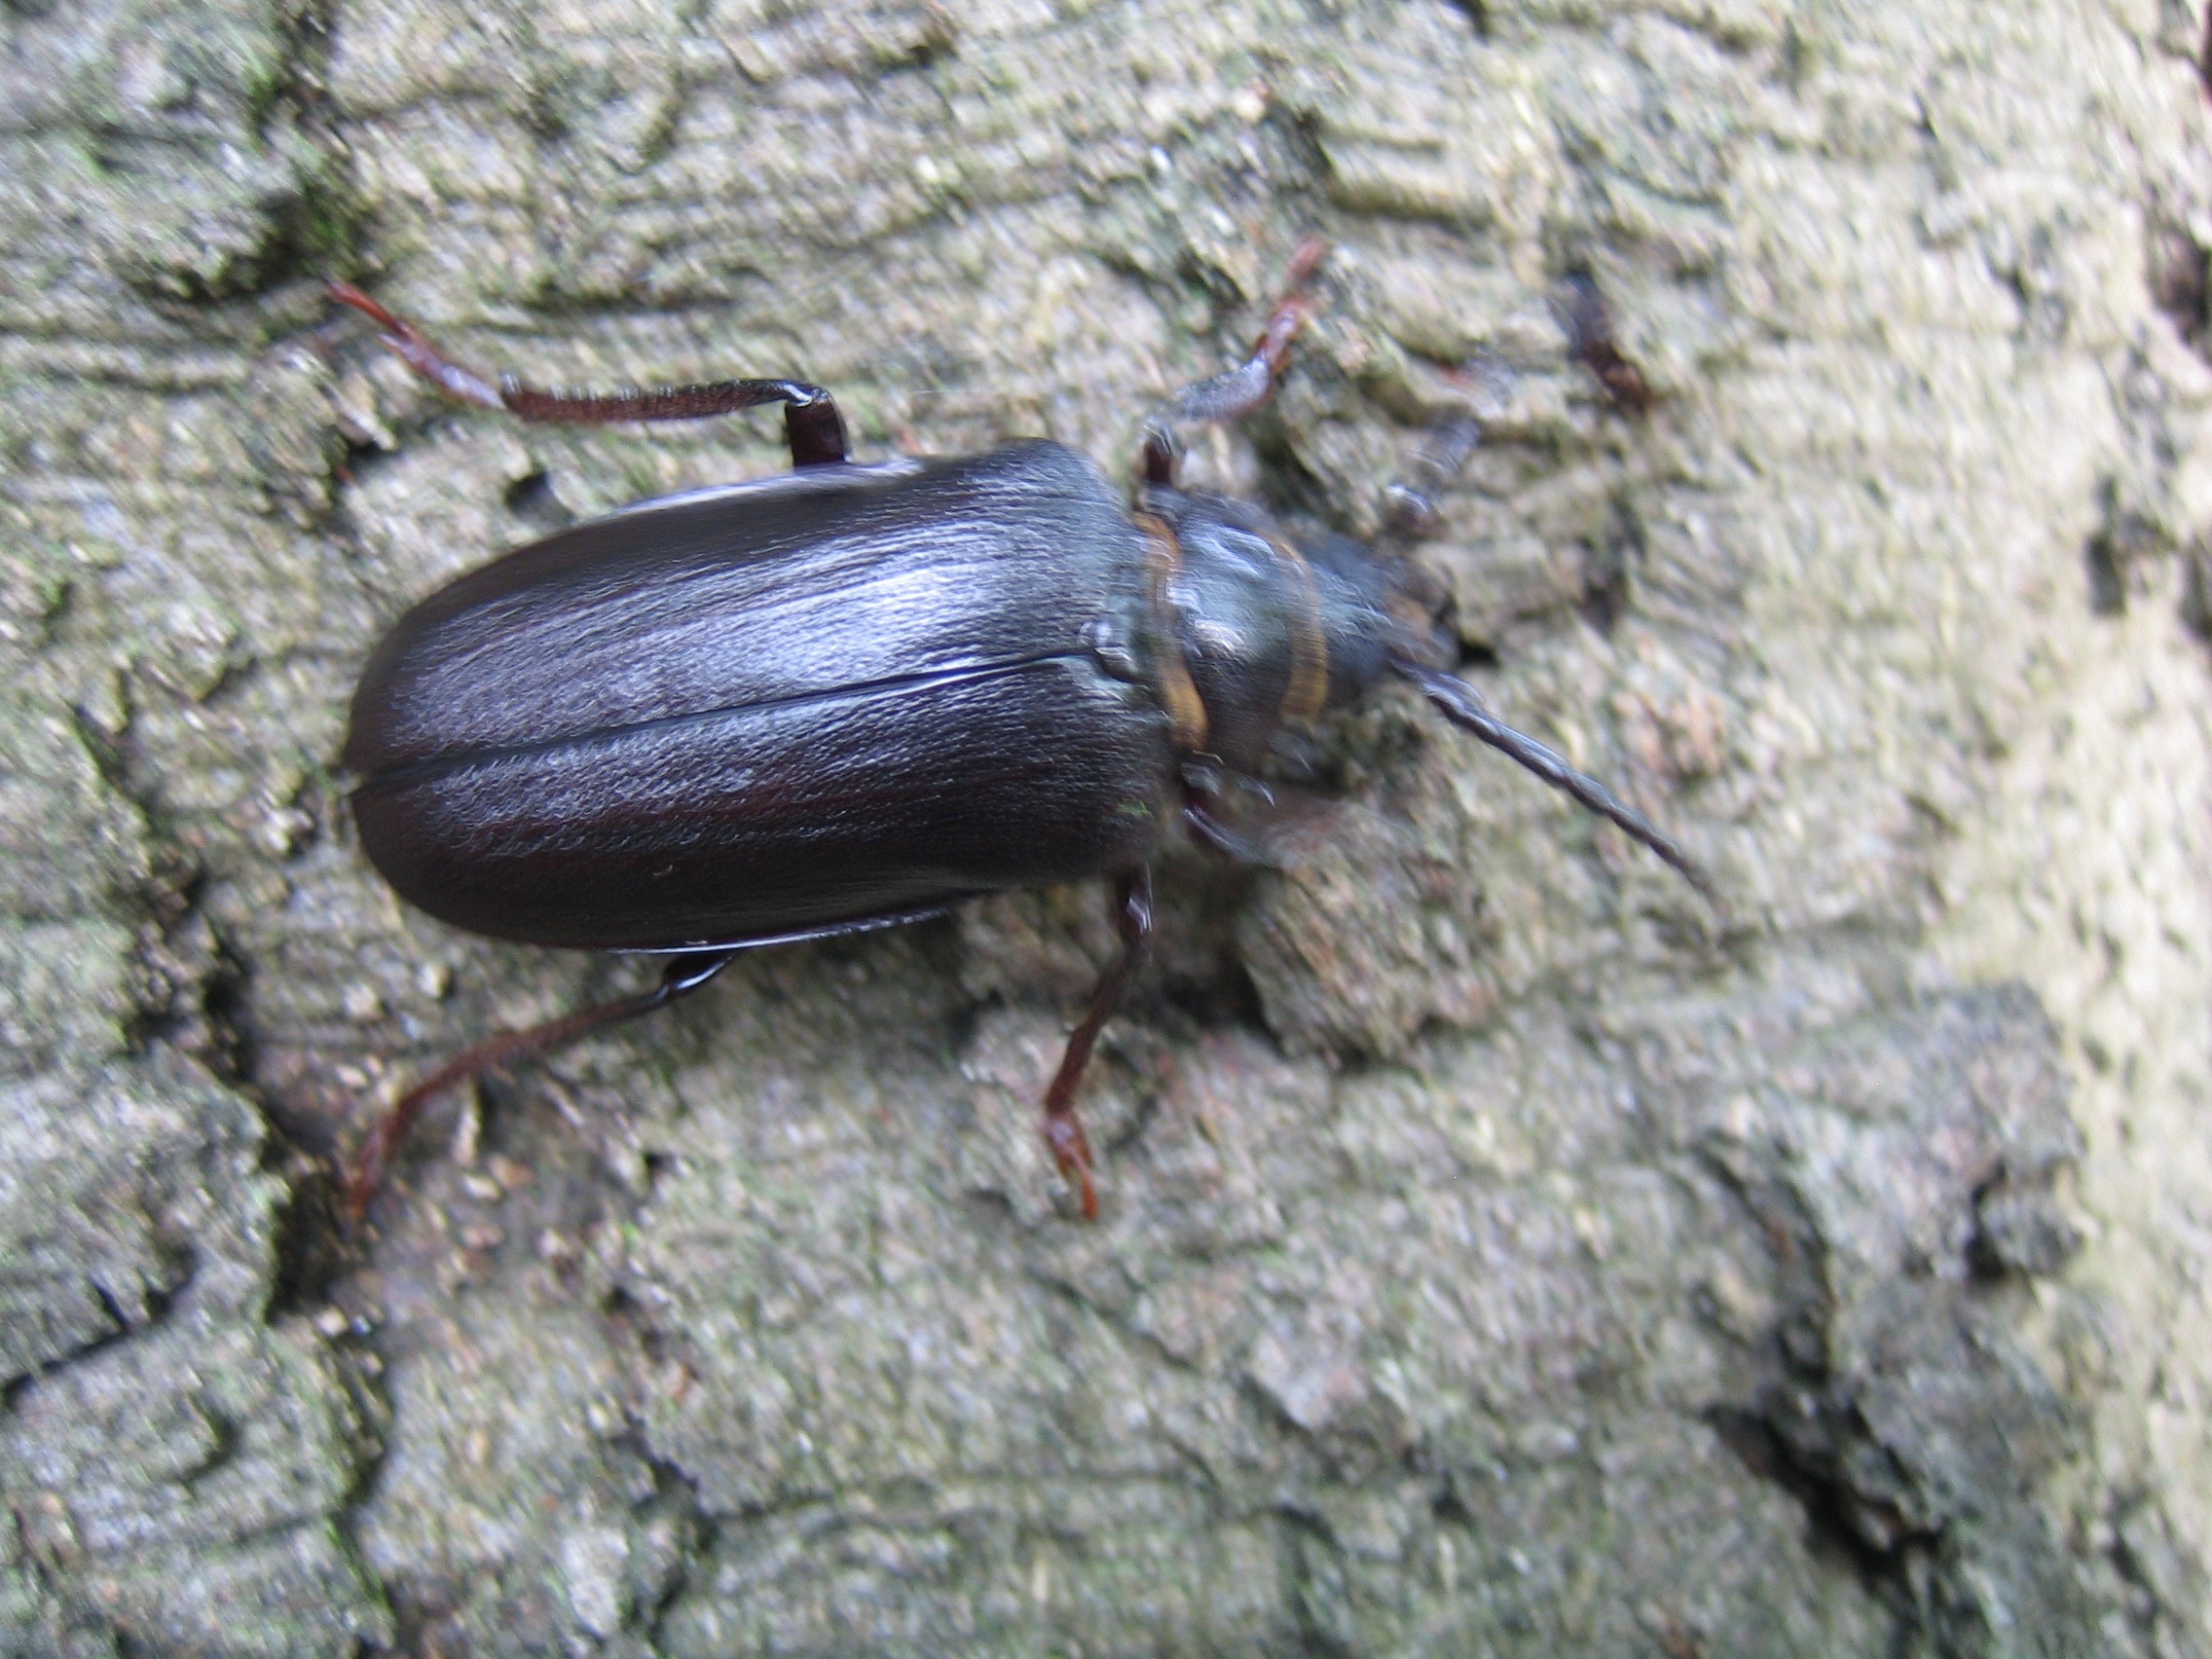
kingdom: Animalia
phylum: Arthropoda
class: Insecta
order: Coleoptera
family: Cerambycidae
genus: Prionus
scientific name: Prionus coriarius
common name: Garver
